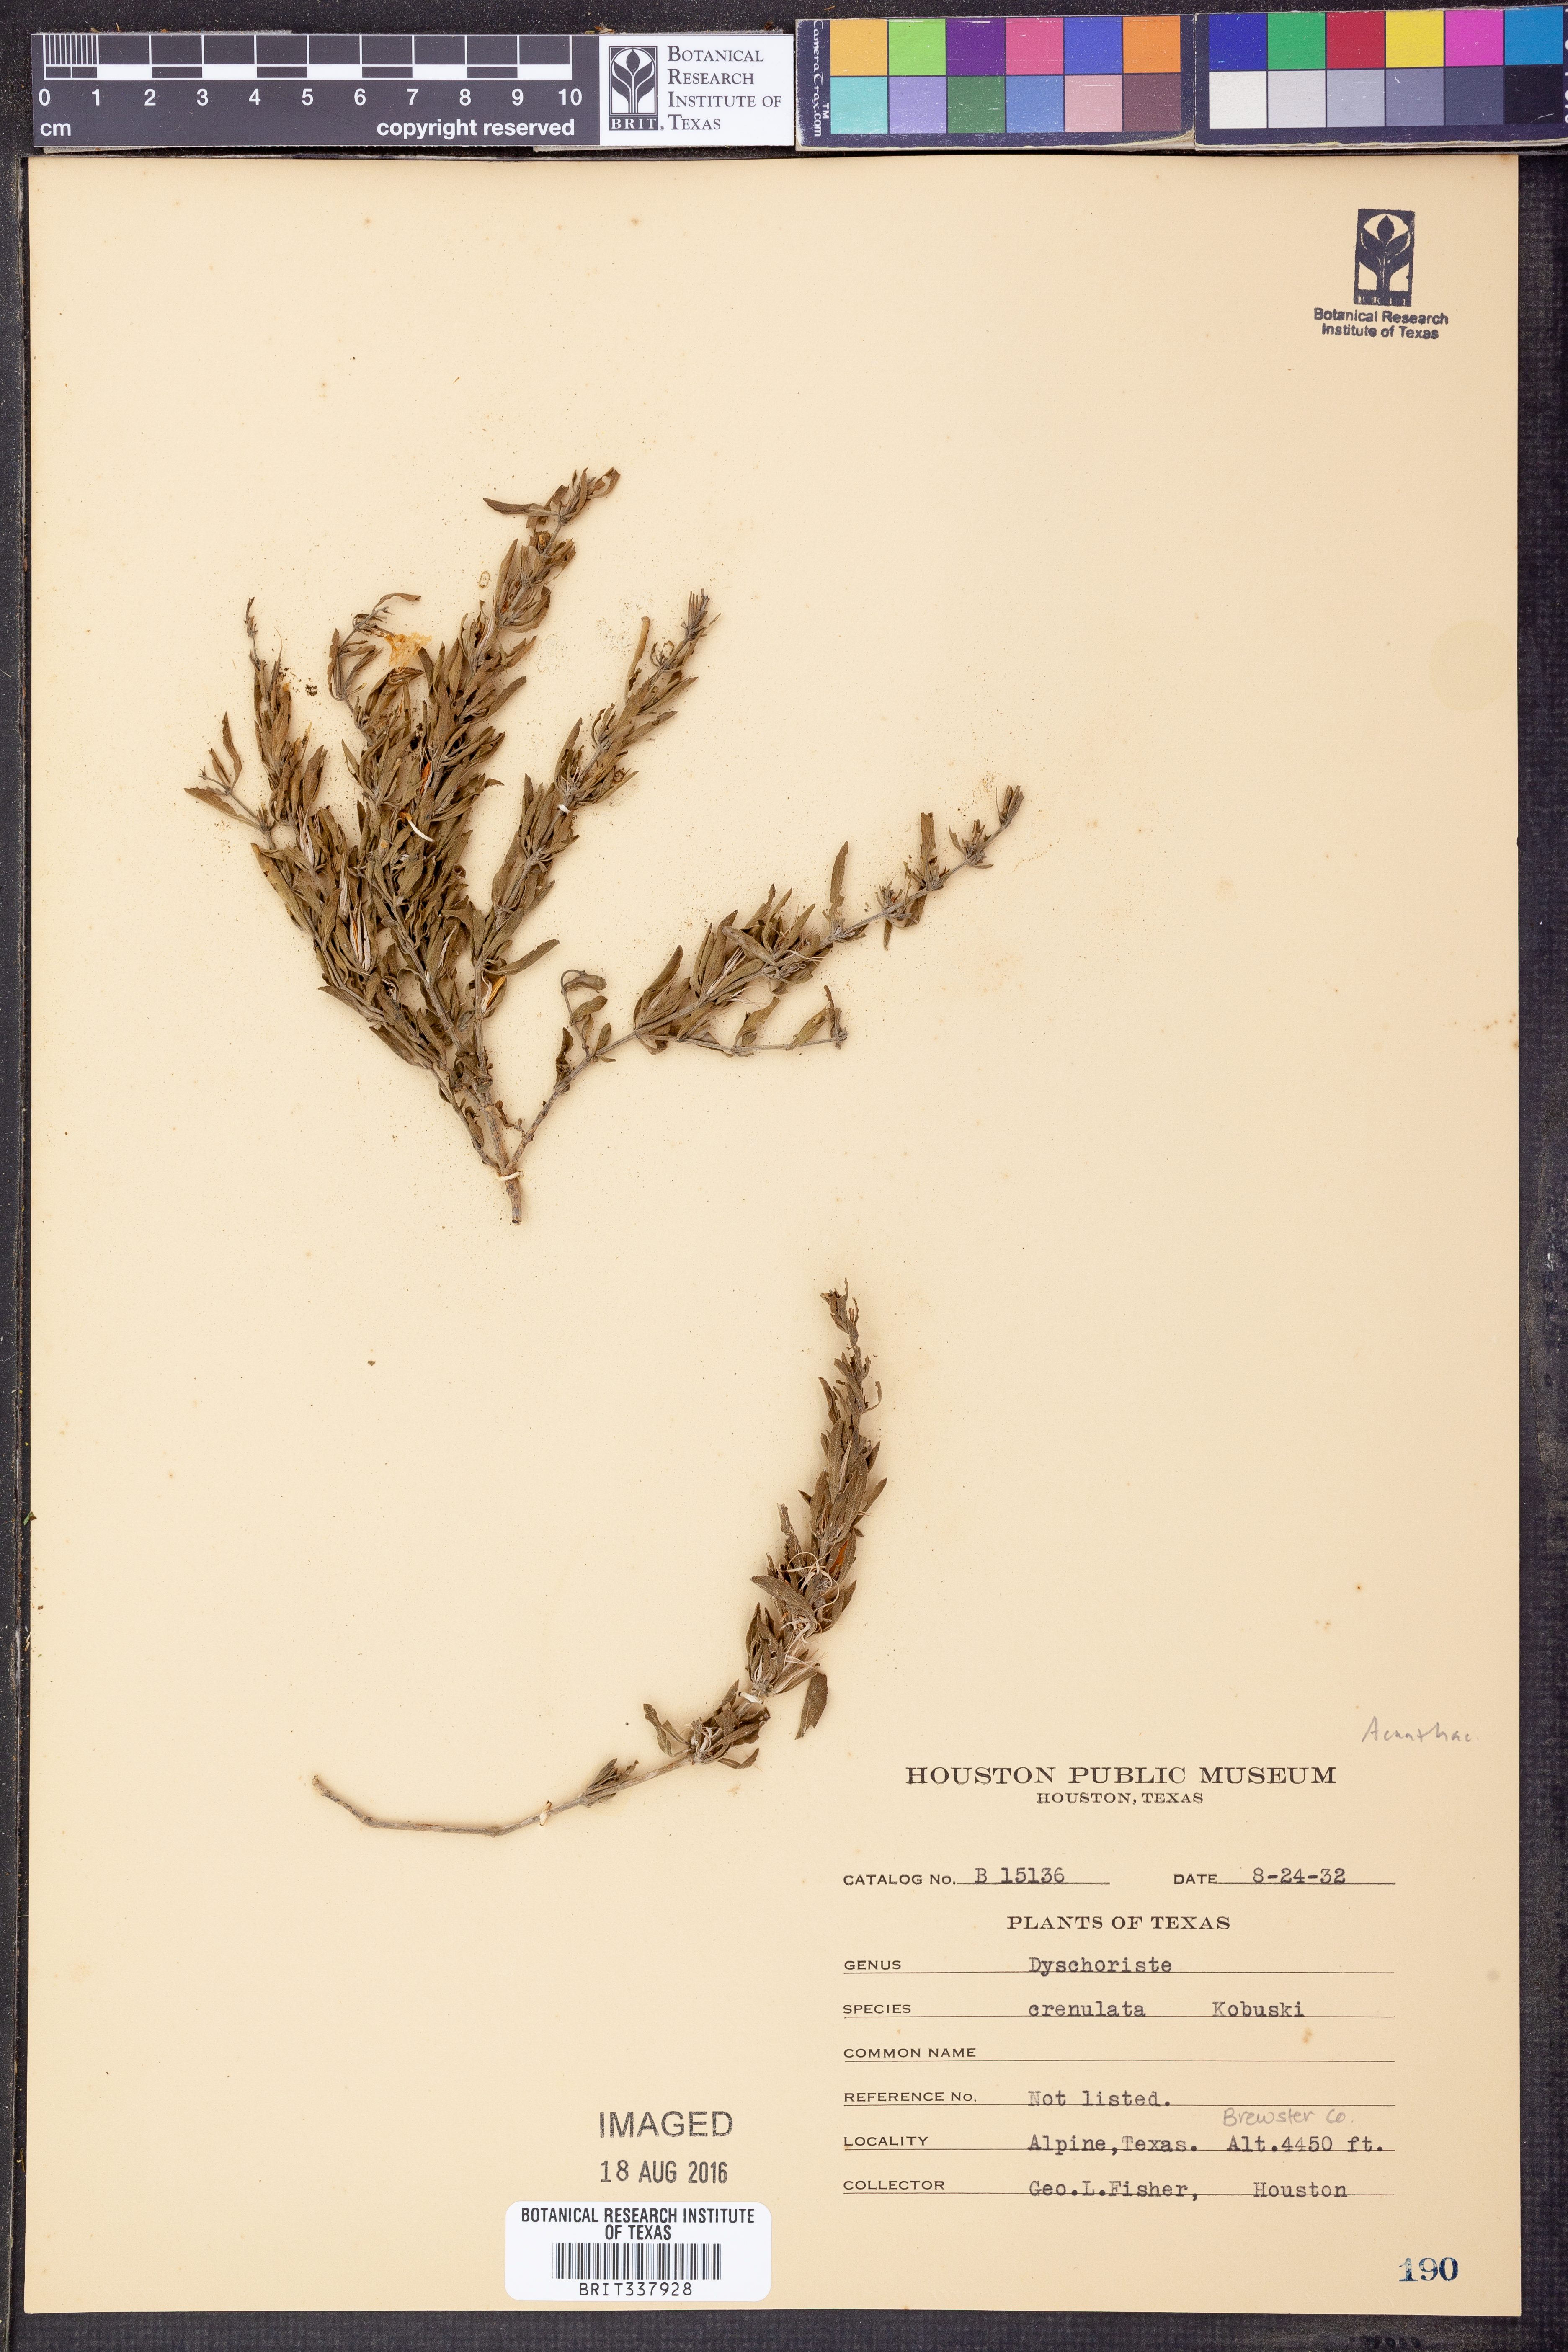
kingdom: Plantae
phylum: Tracheophyta
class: Magnoliopsida
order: Lamiales
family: Acanthaceae
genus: Dyschoriste
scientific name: Dyschoriste crenulata
